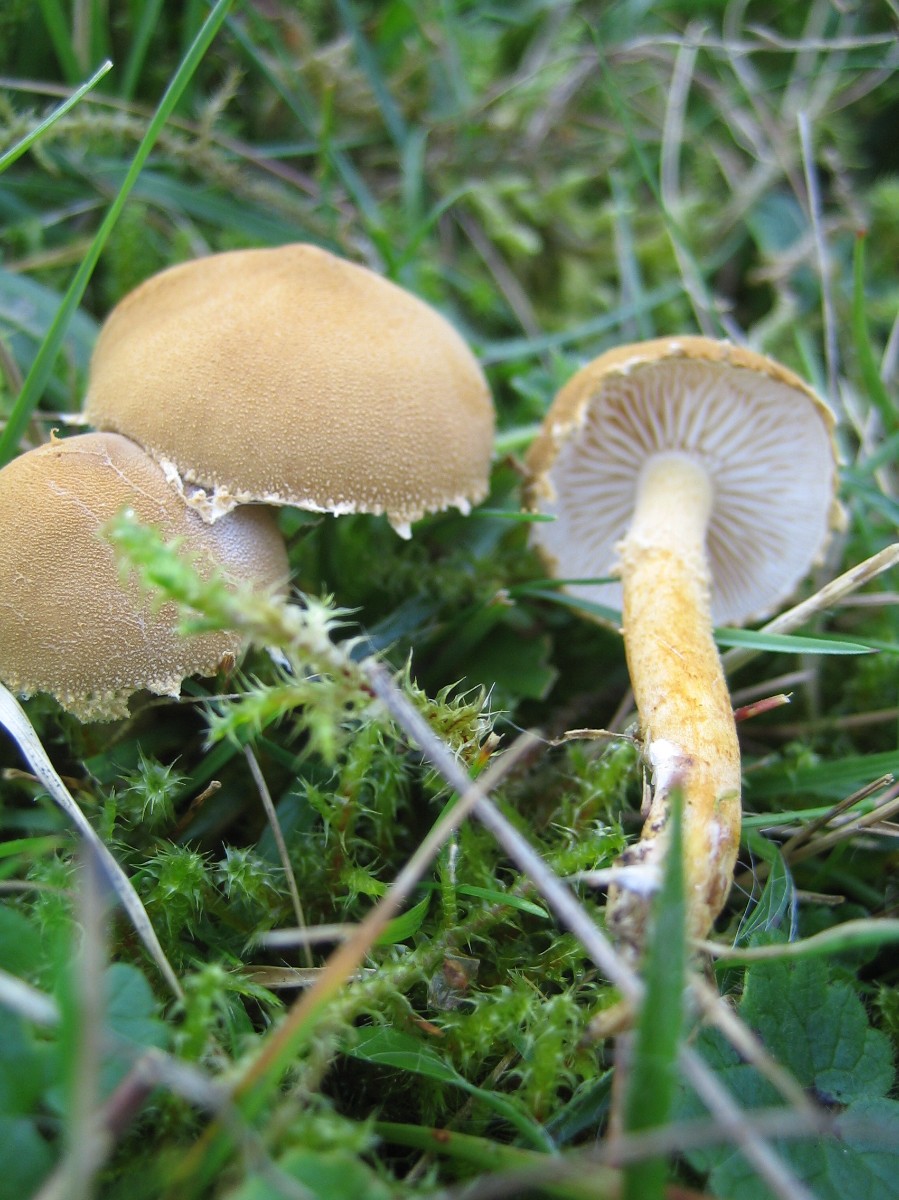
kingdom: Fungi
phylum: Basidiomycota
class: Agaricomycetes
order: Agaricales
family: Tricholomataceae
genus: Cystoderma
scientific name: Cystoderma amianthinum
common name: okkergul grynhat
